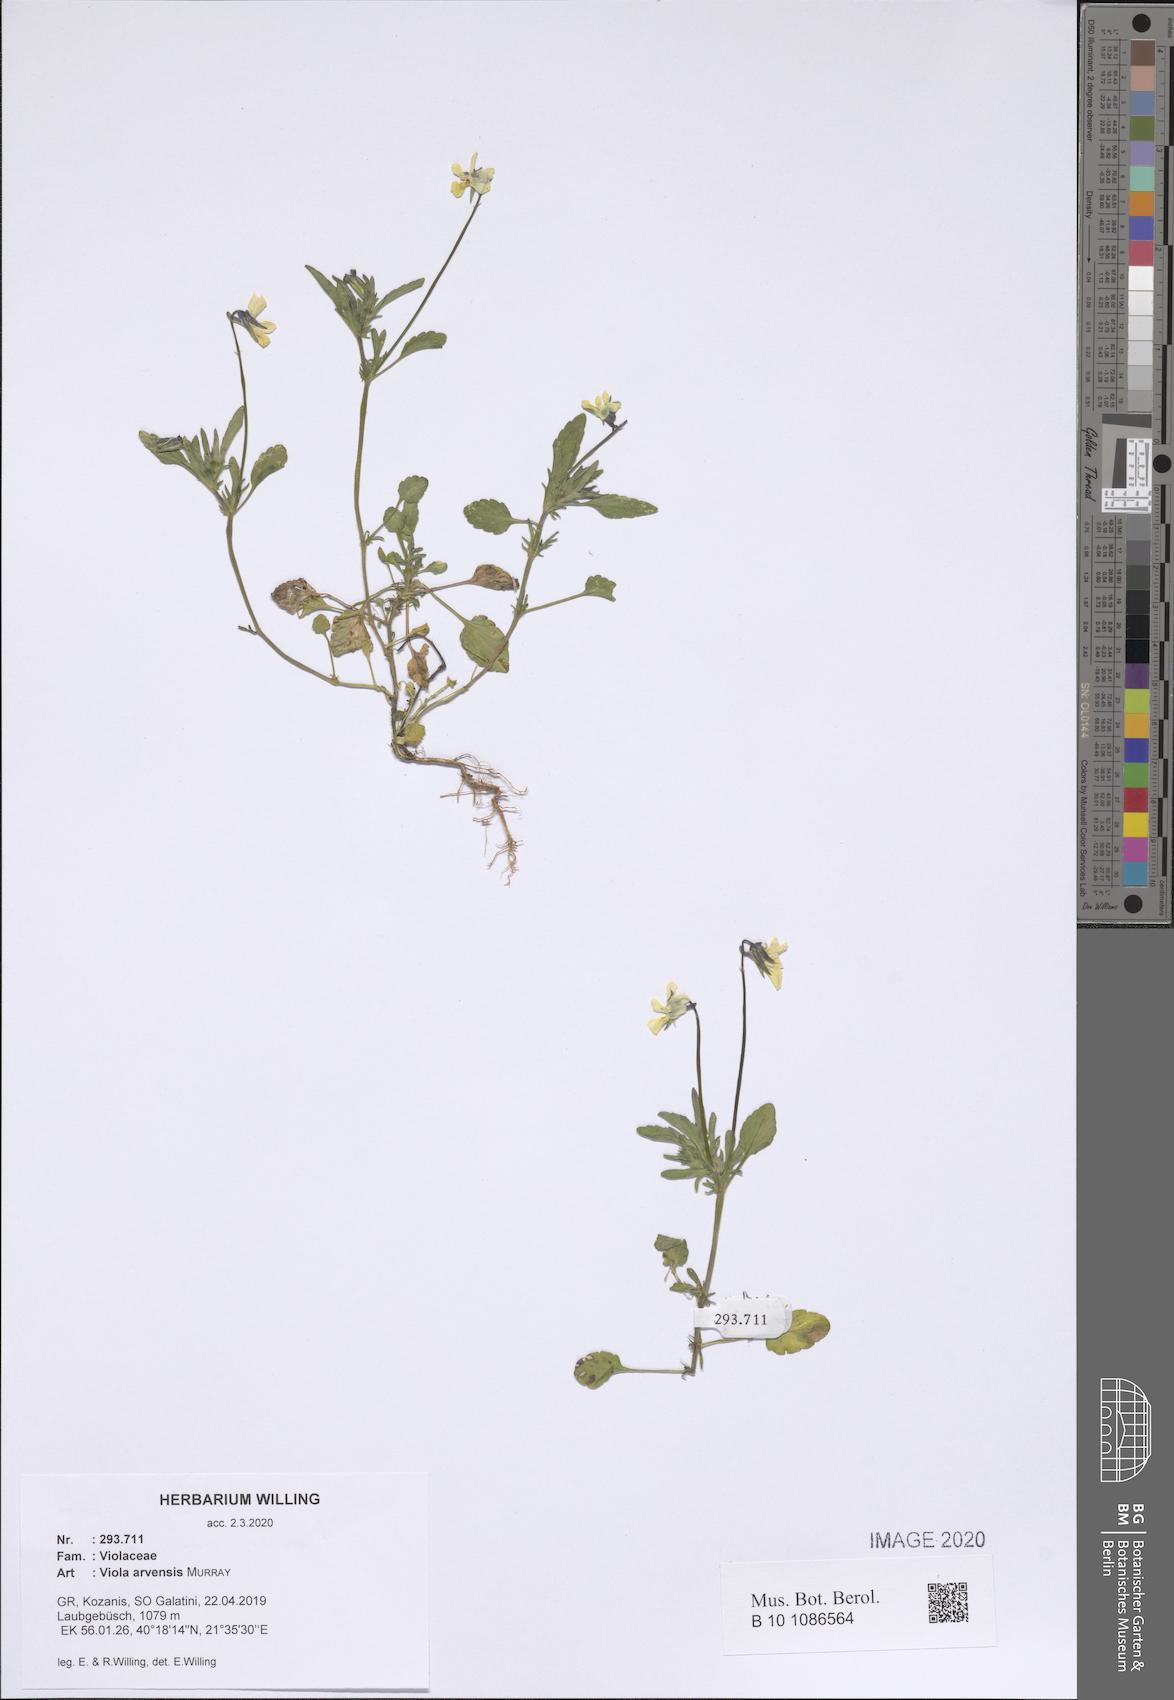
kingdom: Plantae
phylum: Tracheophyta
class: Magnoliopsida
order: Malpighiales
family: Violaceae
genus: Viola
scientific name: Viola arvensis
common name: Field pansy
